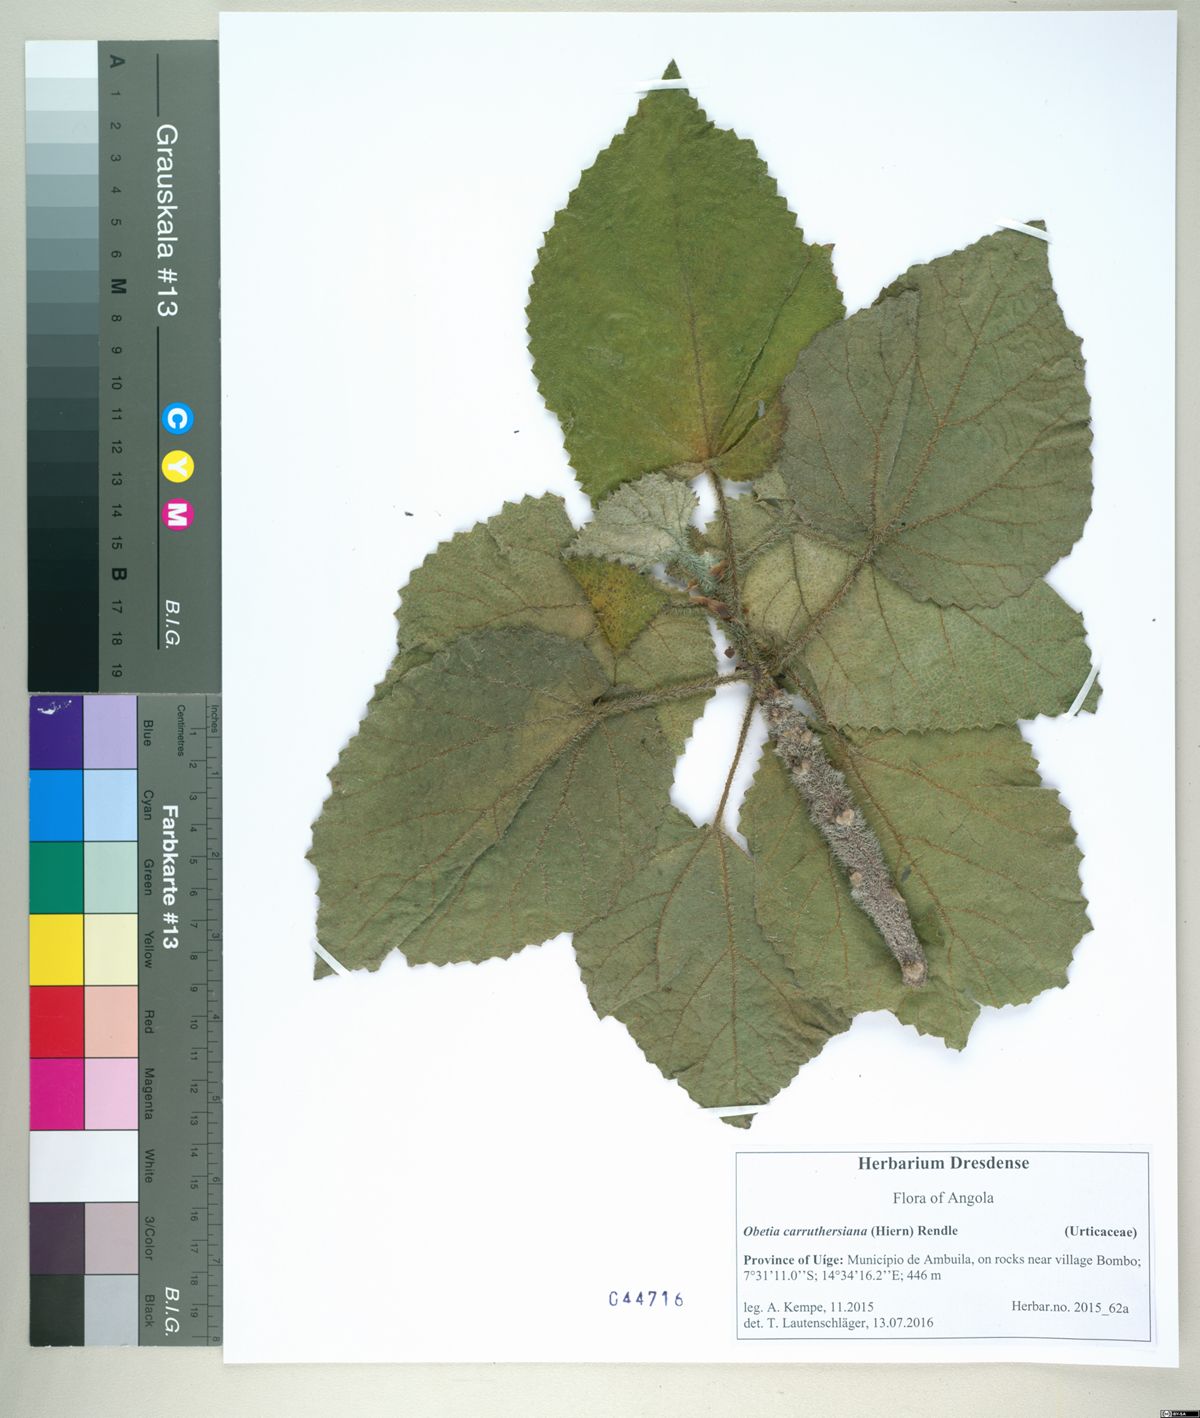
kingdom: Plantae
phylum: Tracheophyta
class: Magnoliopsida
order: Rosales
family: Urticaceae
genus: Obetia
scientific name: Obetia carruthersiana
